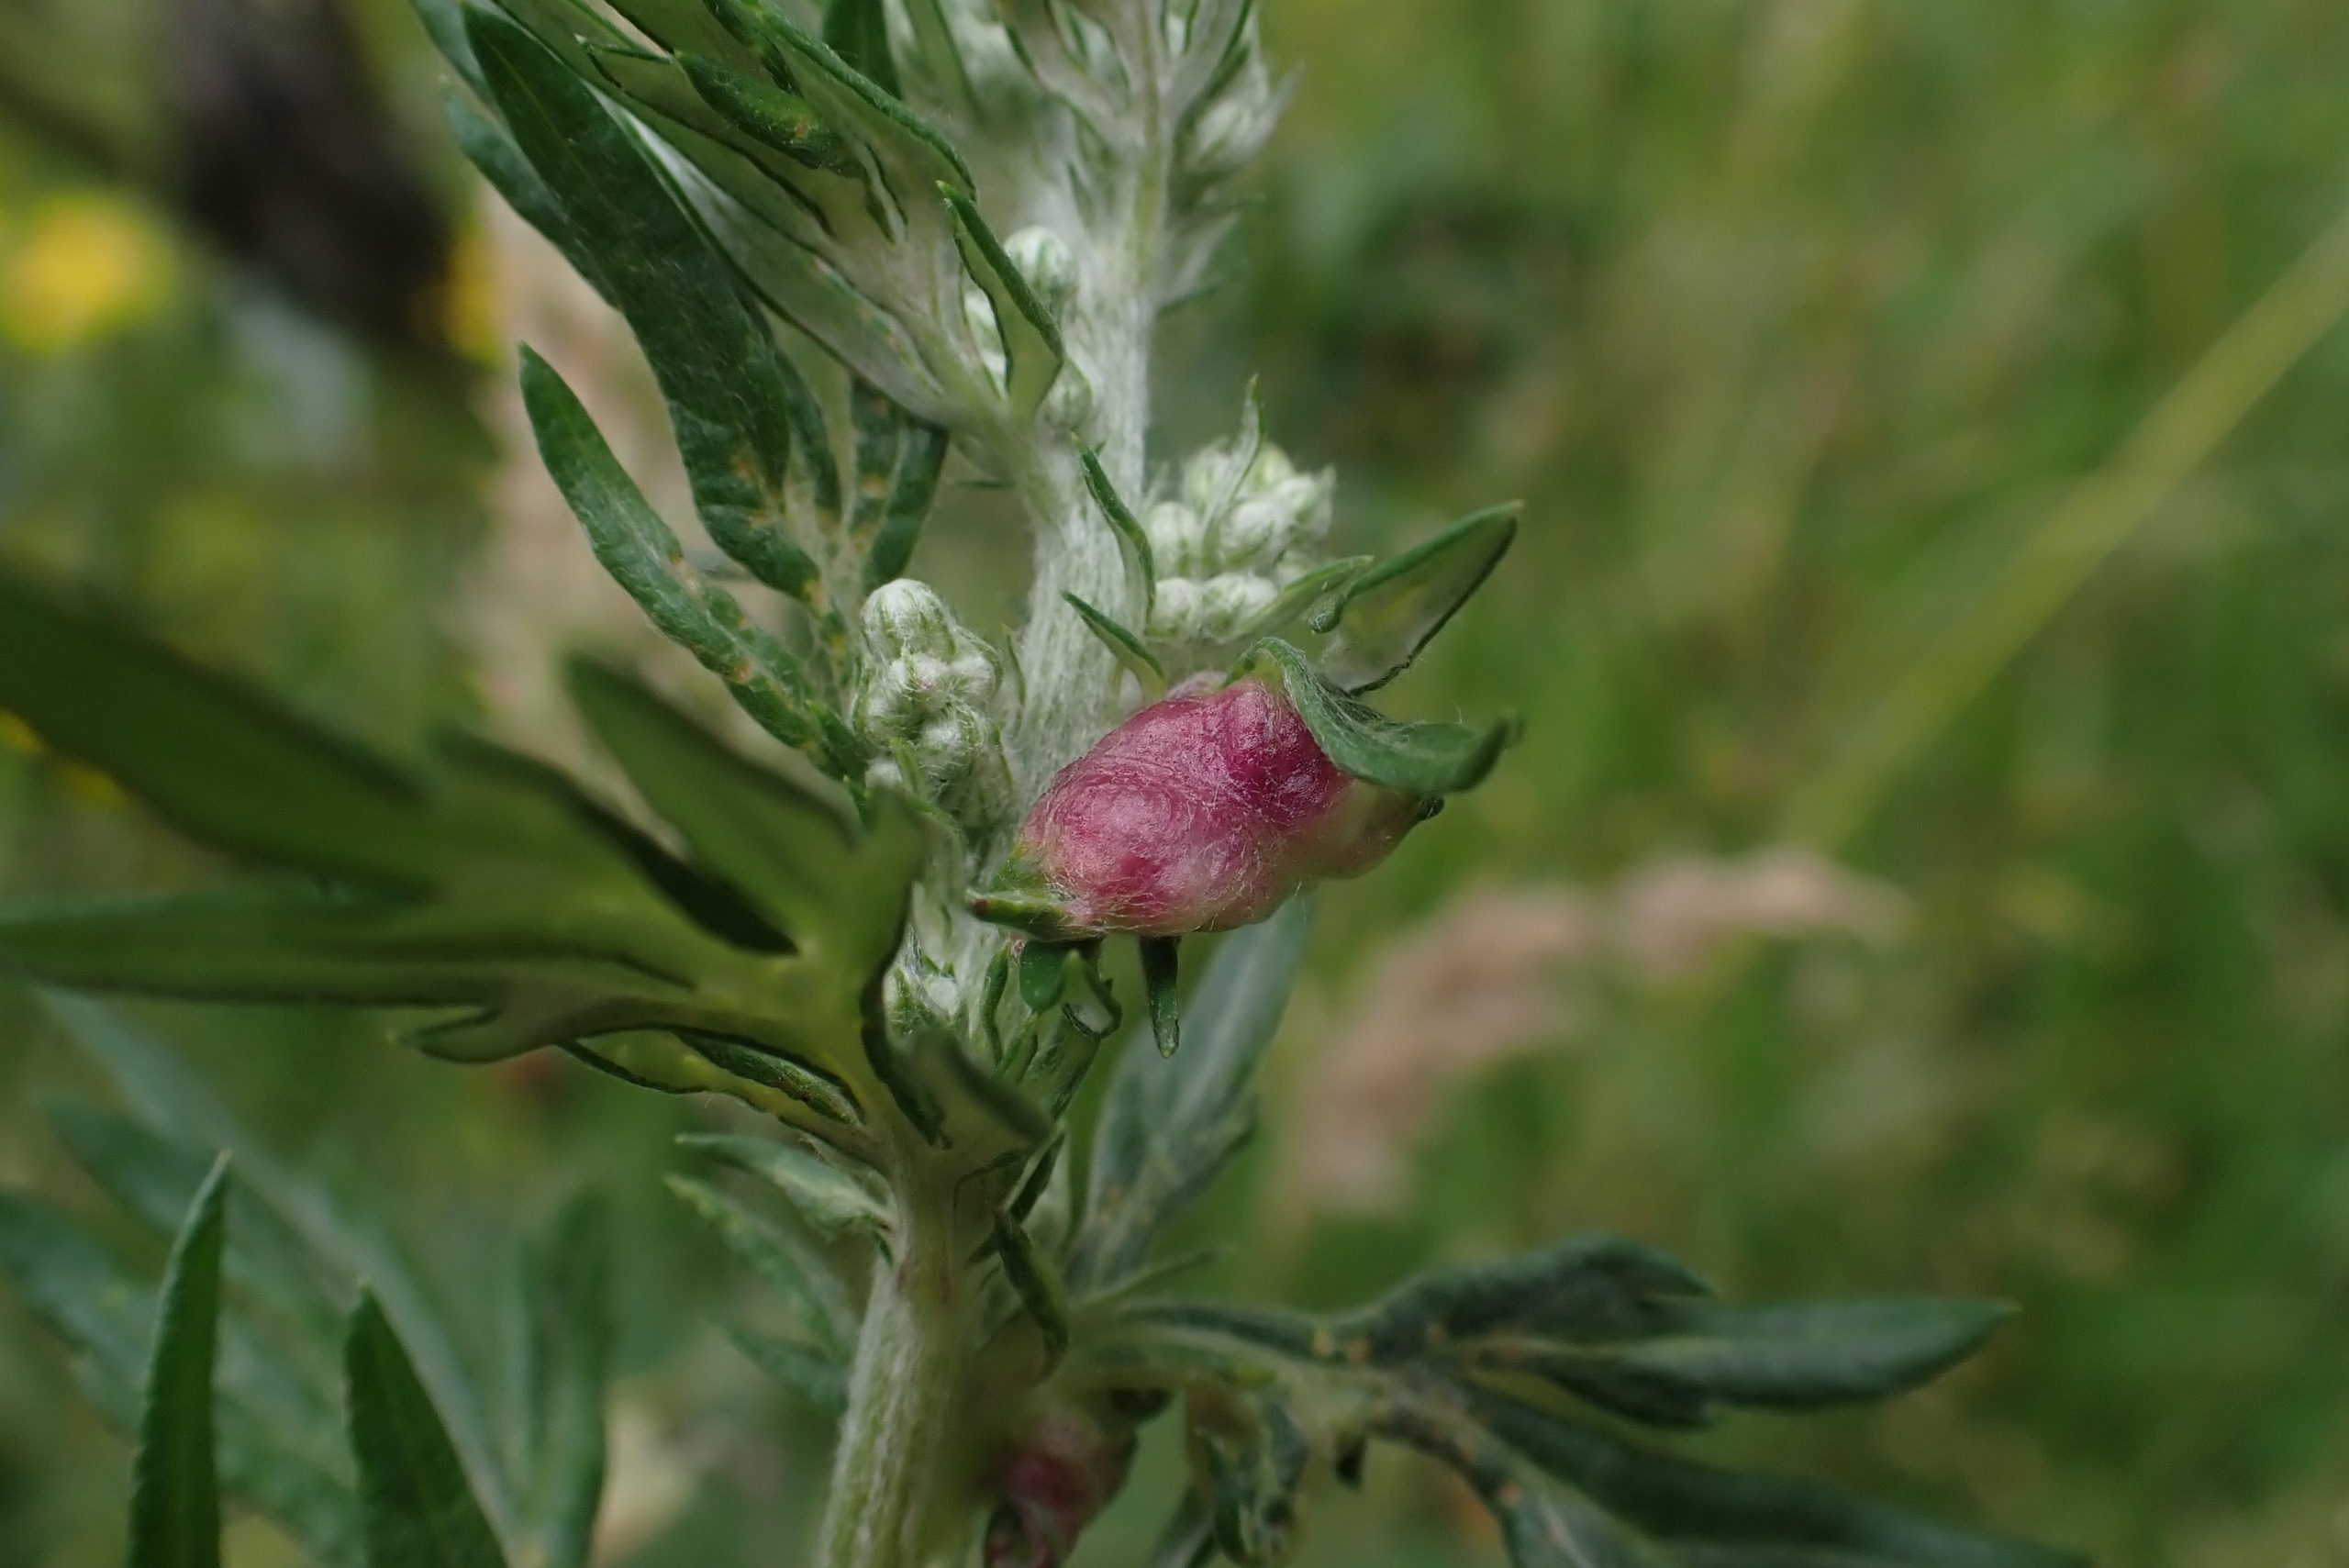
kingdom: Animalia
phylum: Arthropoda
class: Insecta
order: Hemiptera
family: Aphididae
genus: Cryptosiphum
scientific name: Cryptosiphum artemisiae
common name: Bynkegallelus
